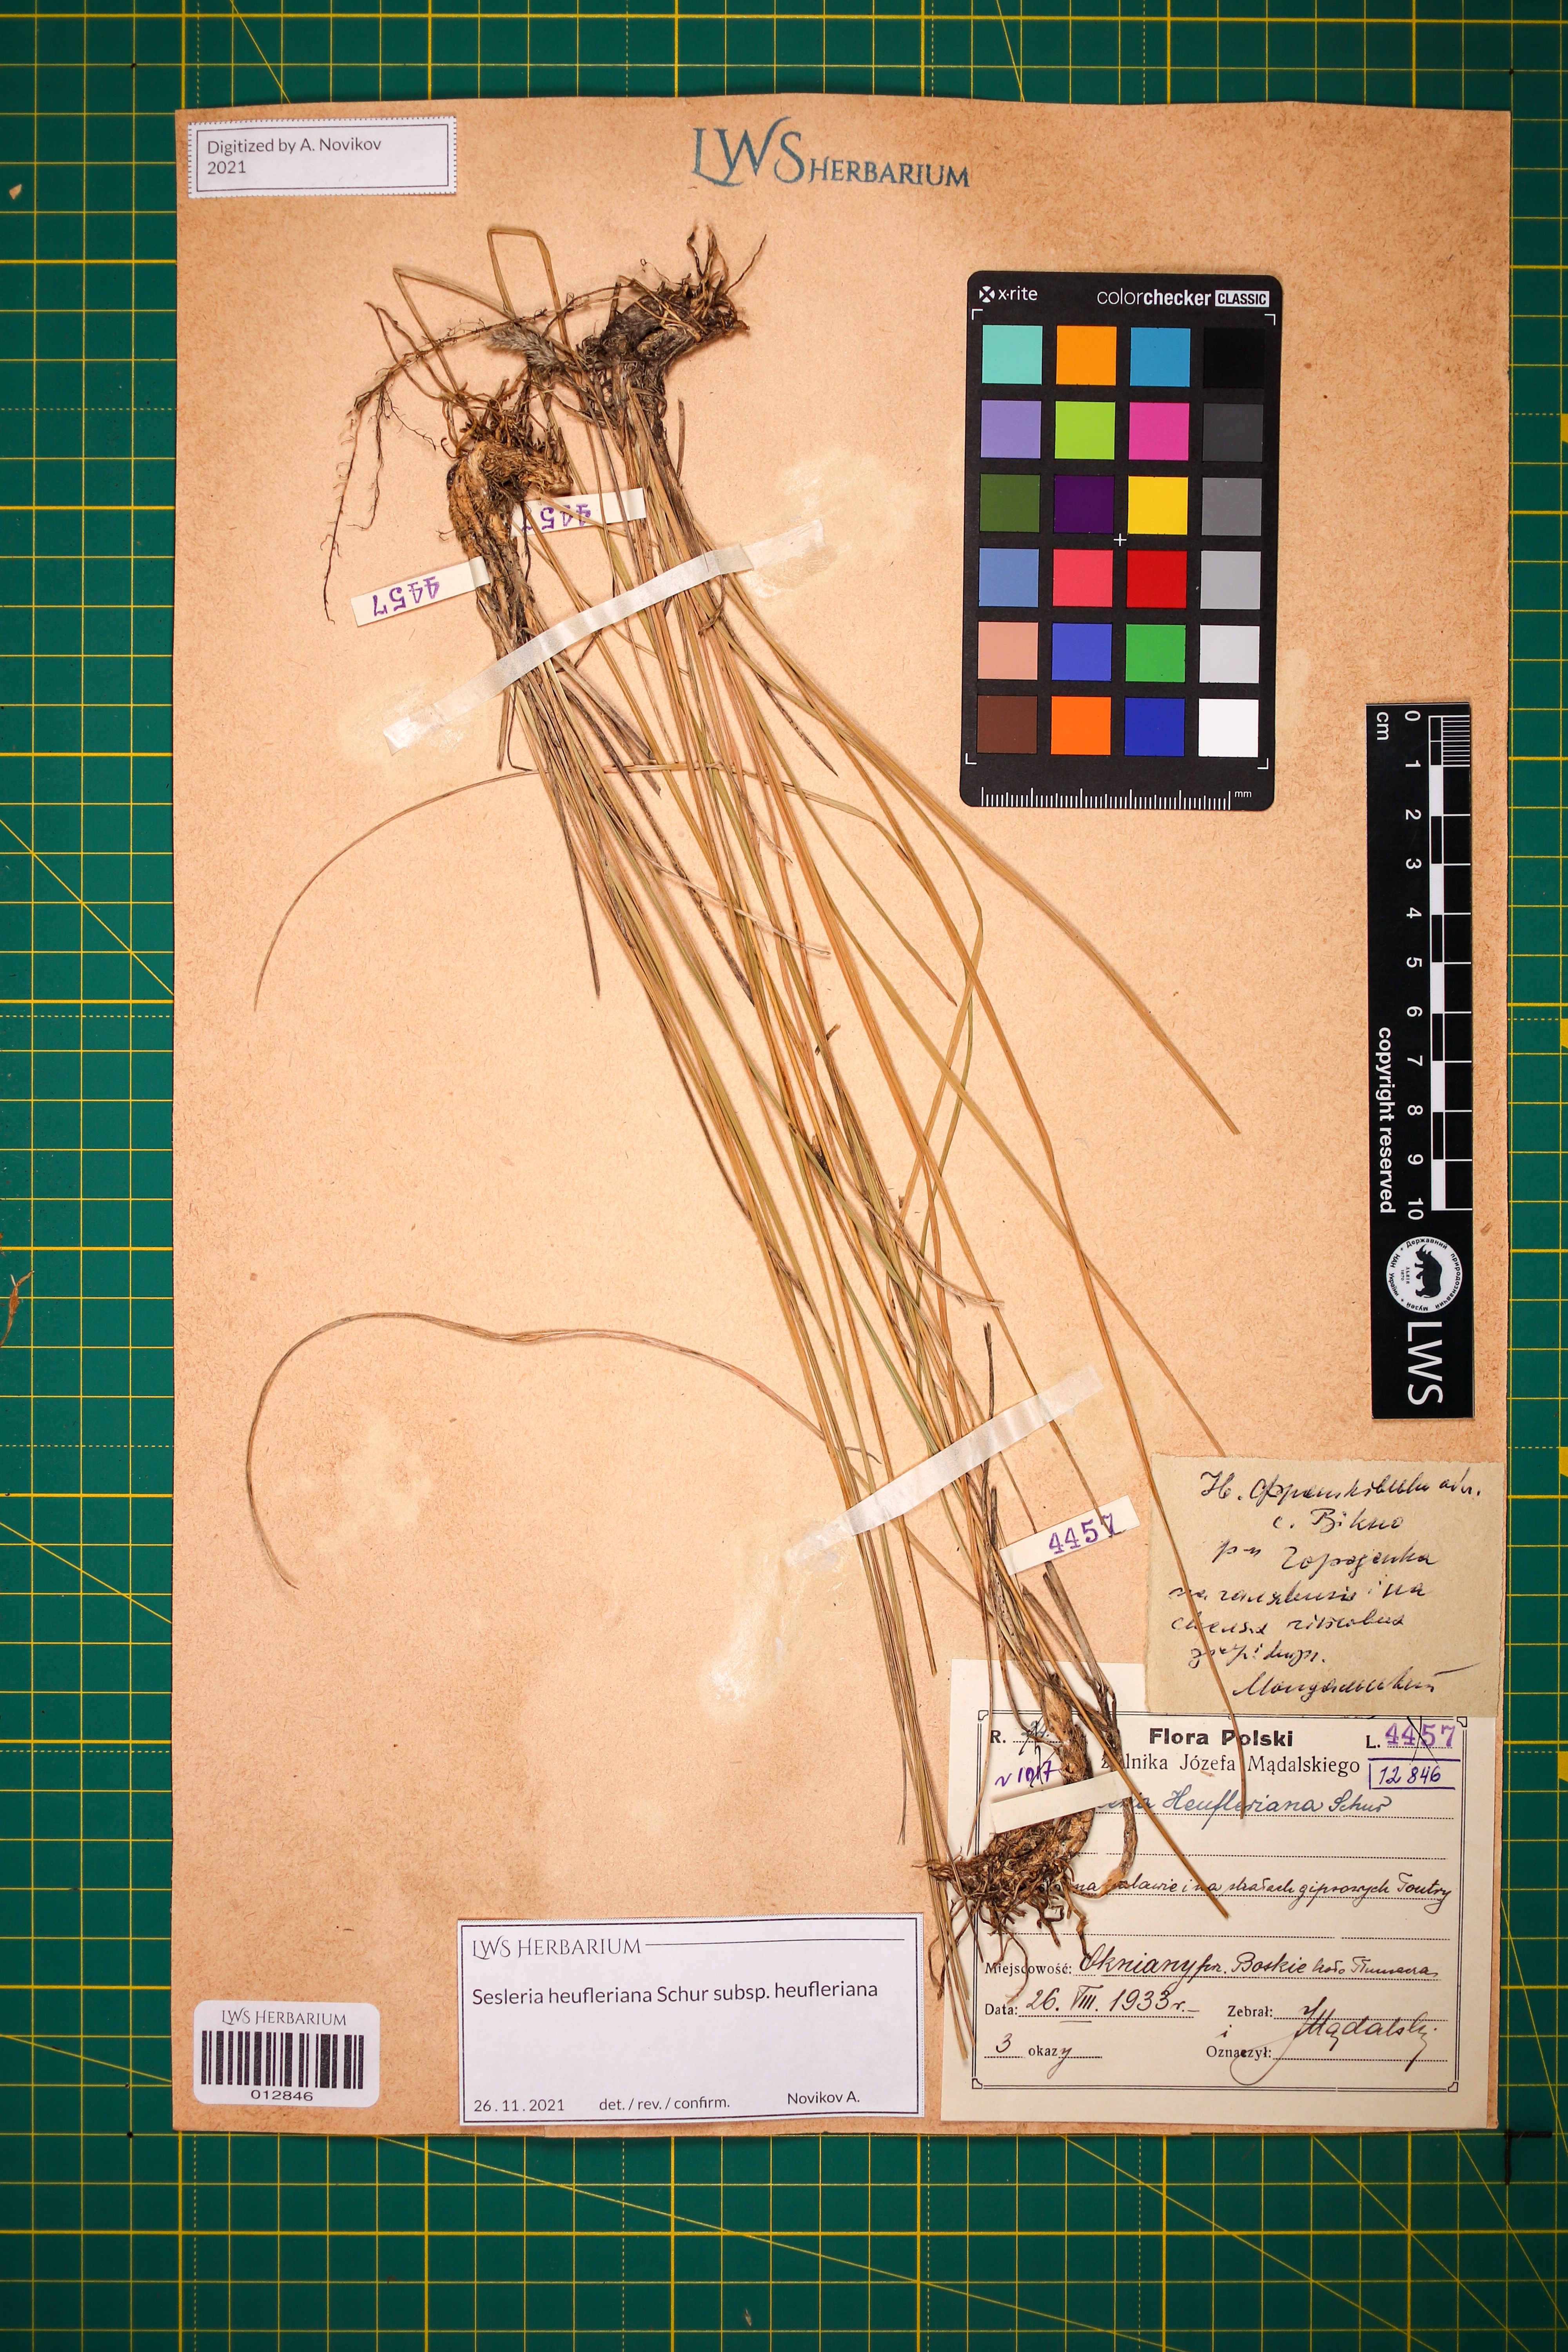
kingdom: Plantae
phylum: Tracheophyta
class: Liliopsida
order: Poales
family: Poaceae
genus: Sesleria
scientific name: Sesleria heufleriana
